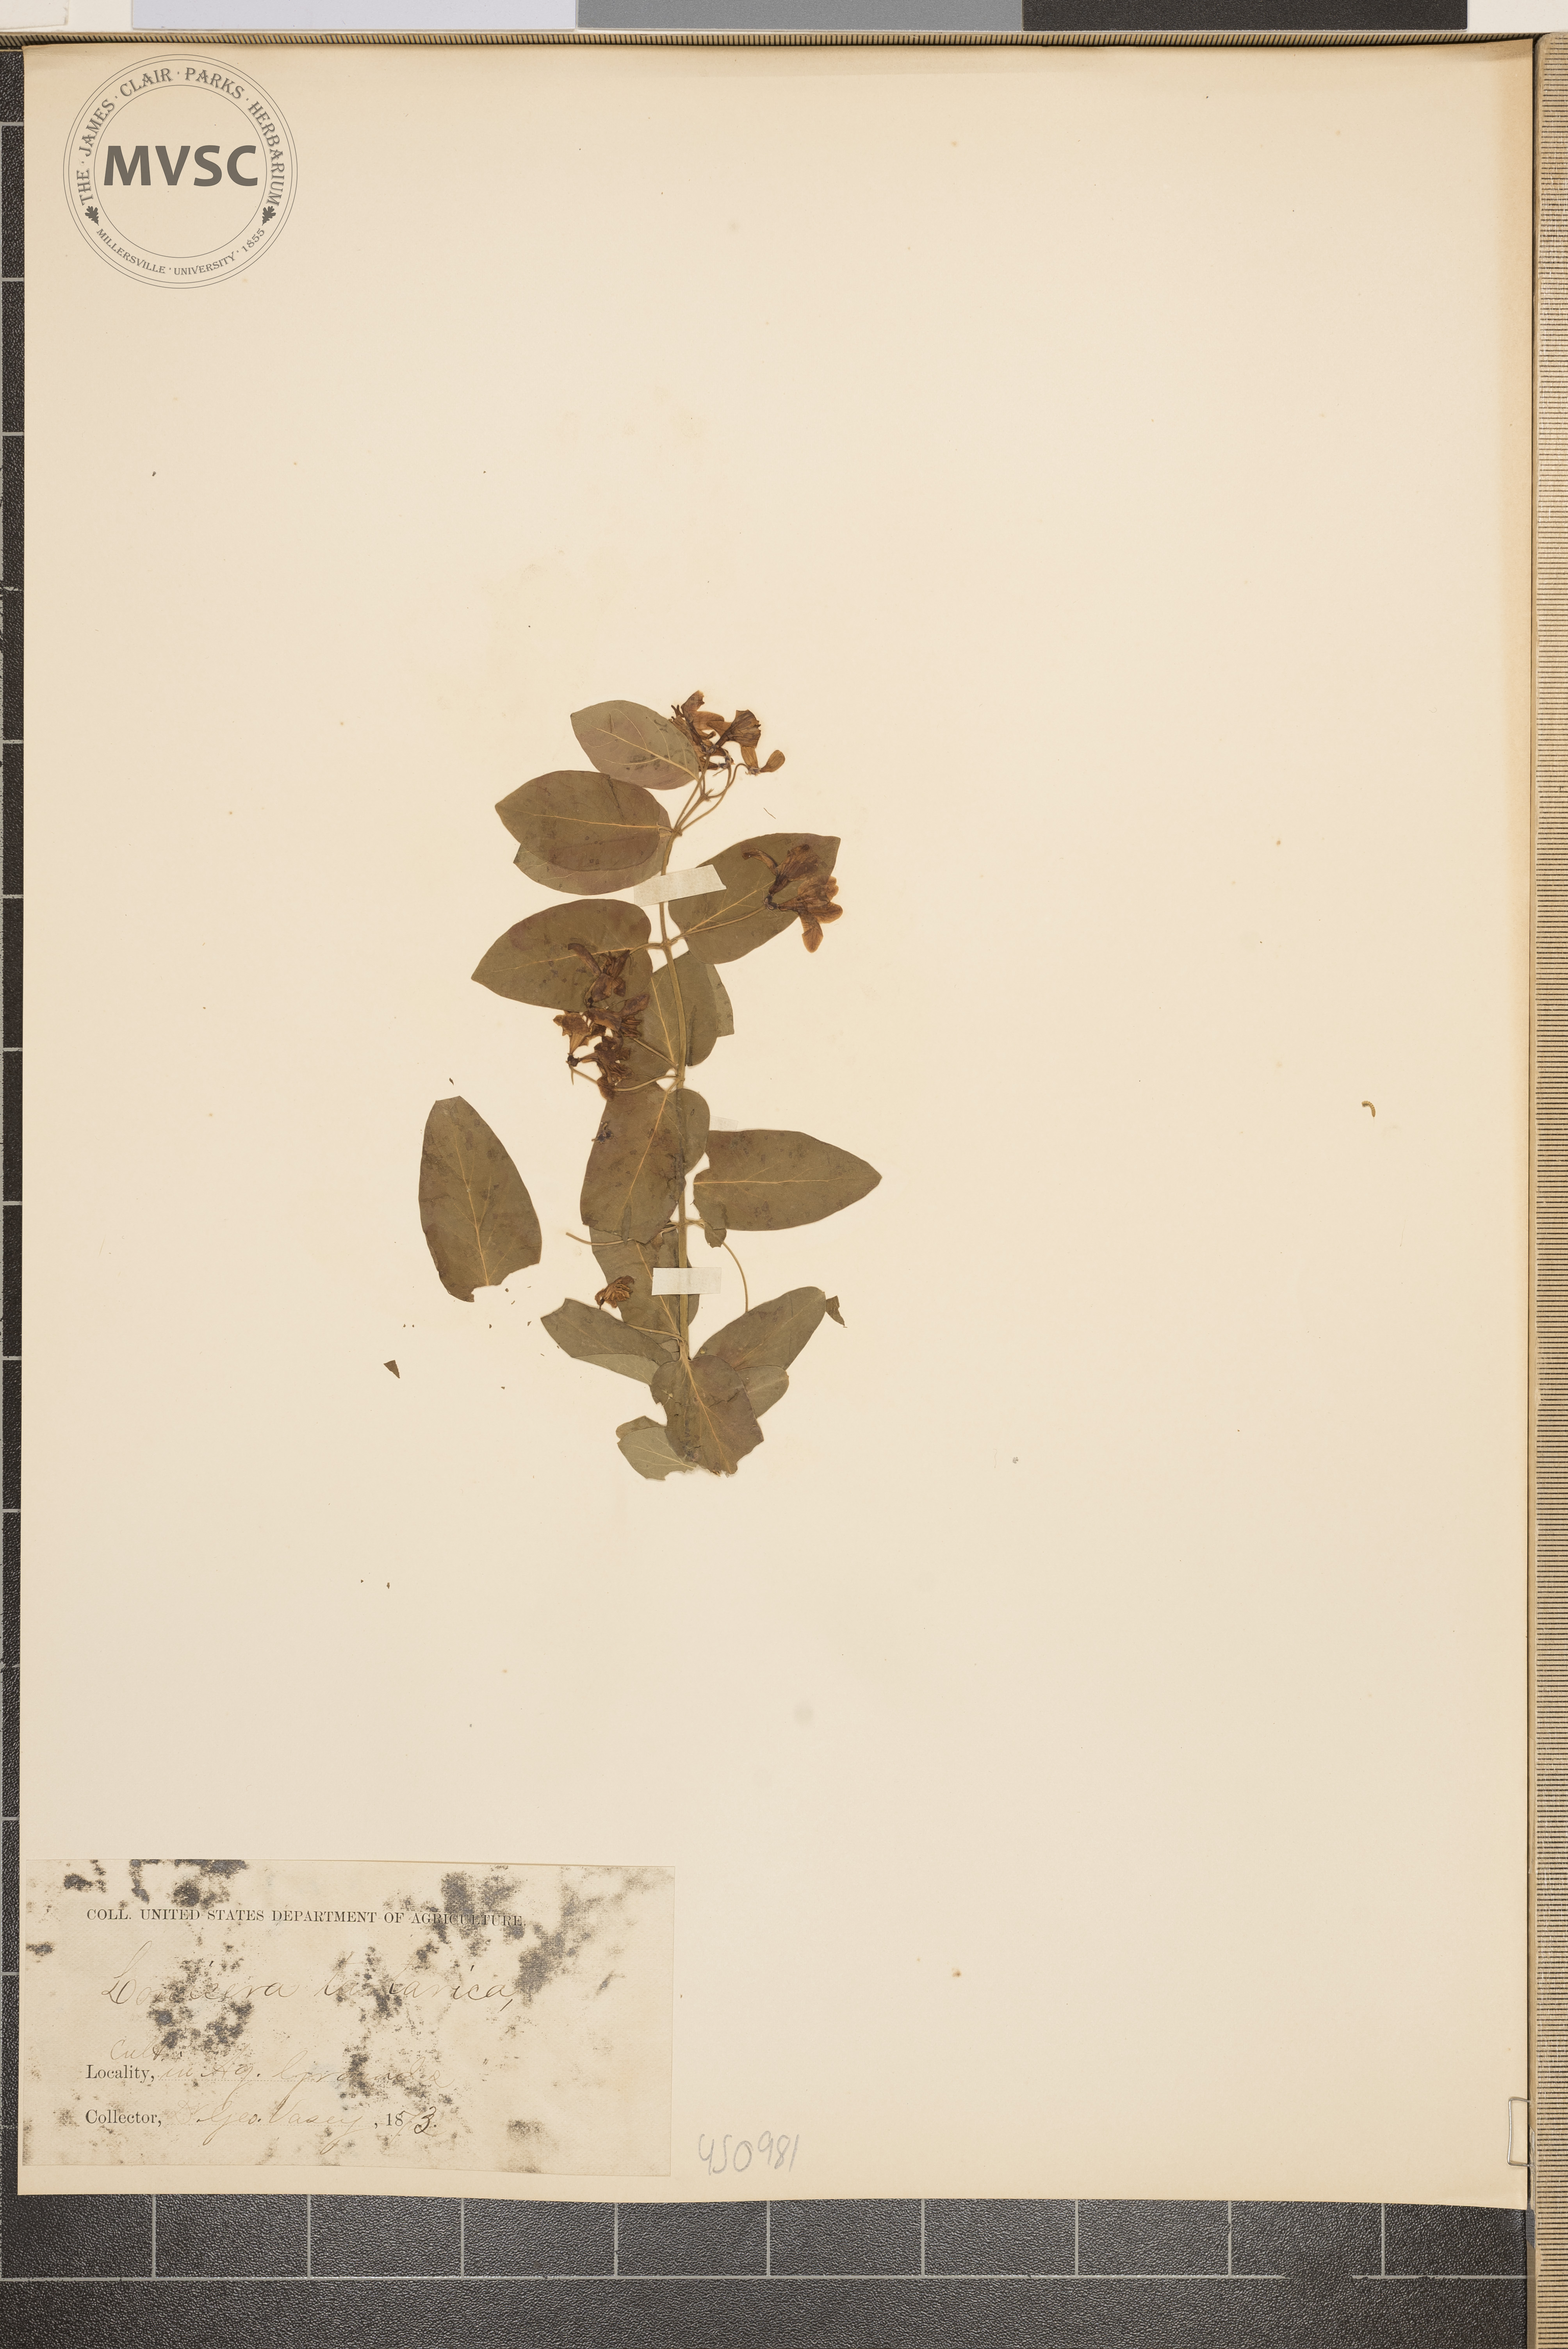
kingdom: Plantae
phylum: Tracheophyta
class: Magnoliopsida
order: Dipsacales
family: Caprifoliaceae
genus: Lonicera
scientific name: Lonicera tatarica
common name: Tatarian honeysuckle
